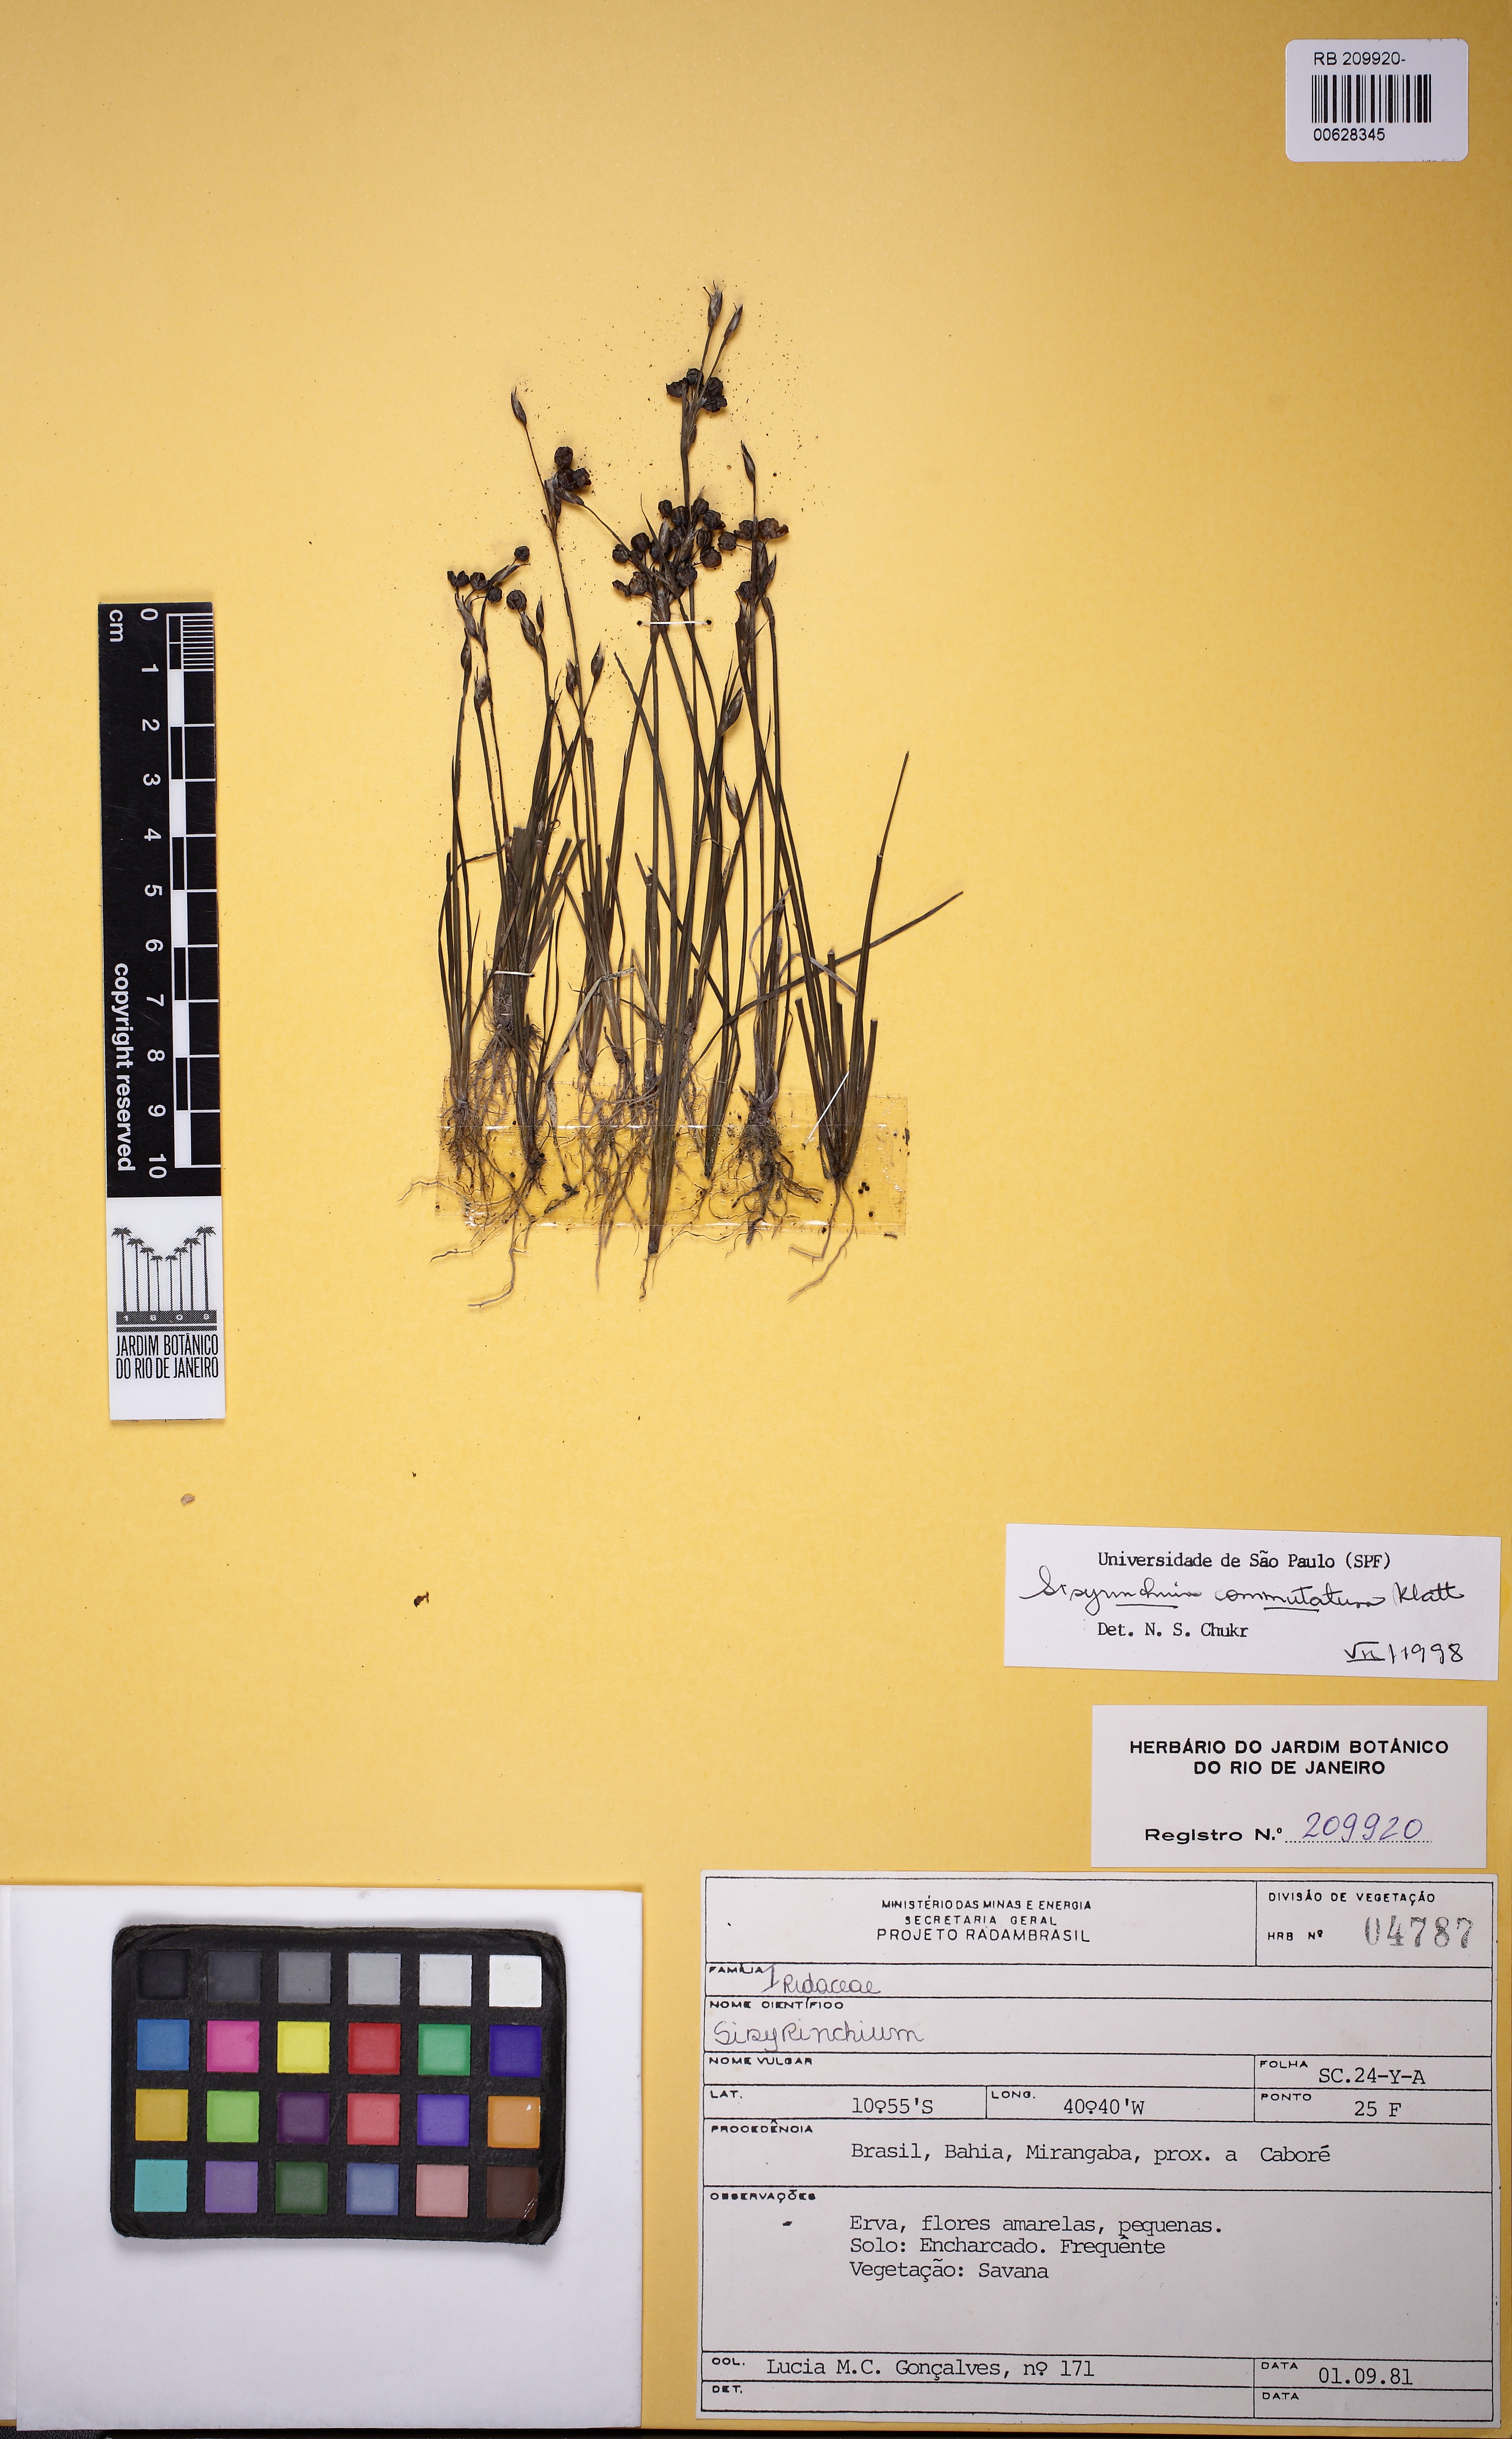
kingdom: Plantae
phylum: Tracheophyta
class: Liliopsida
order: Asparagales
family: Iridaceae
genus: Sisyrinchium
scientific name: Sisyrinchium commutatum
